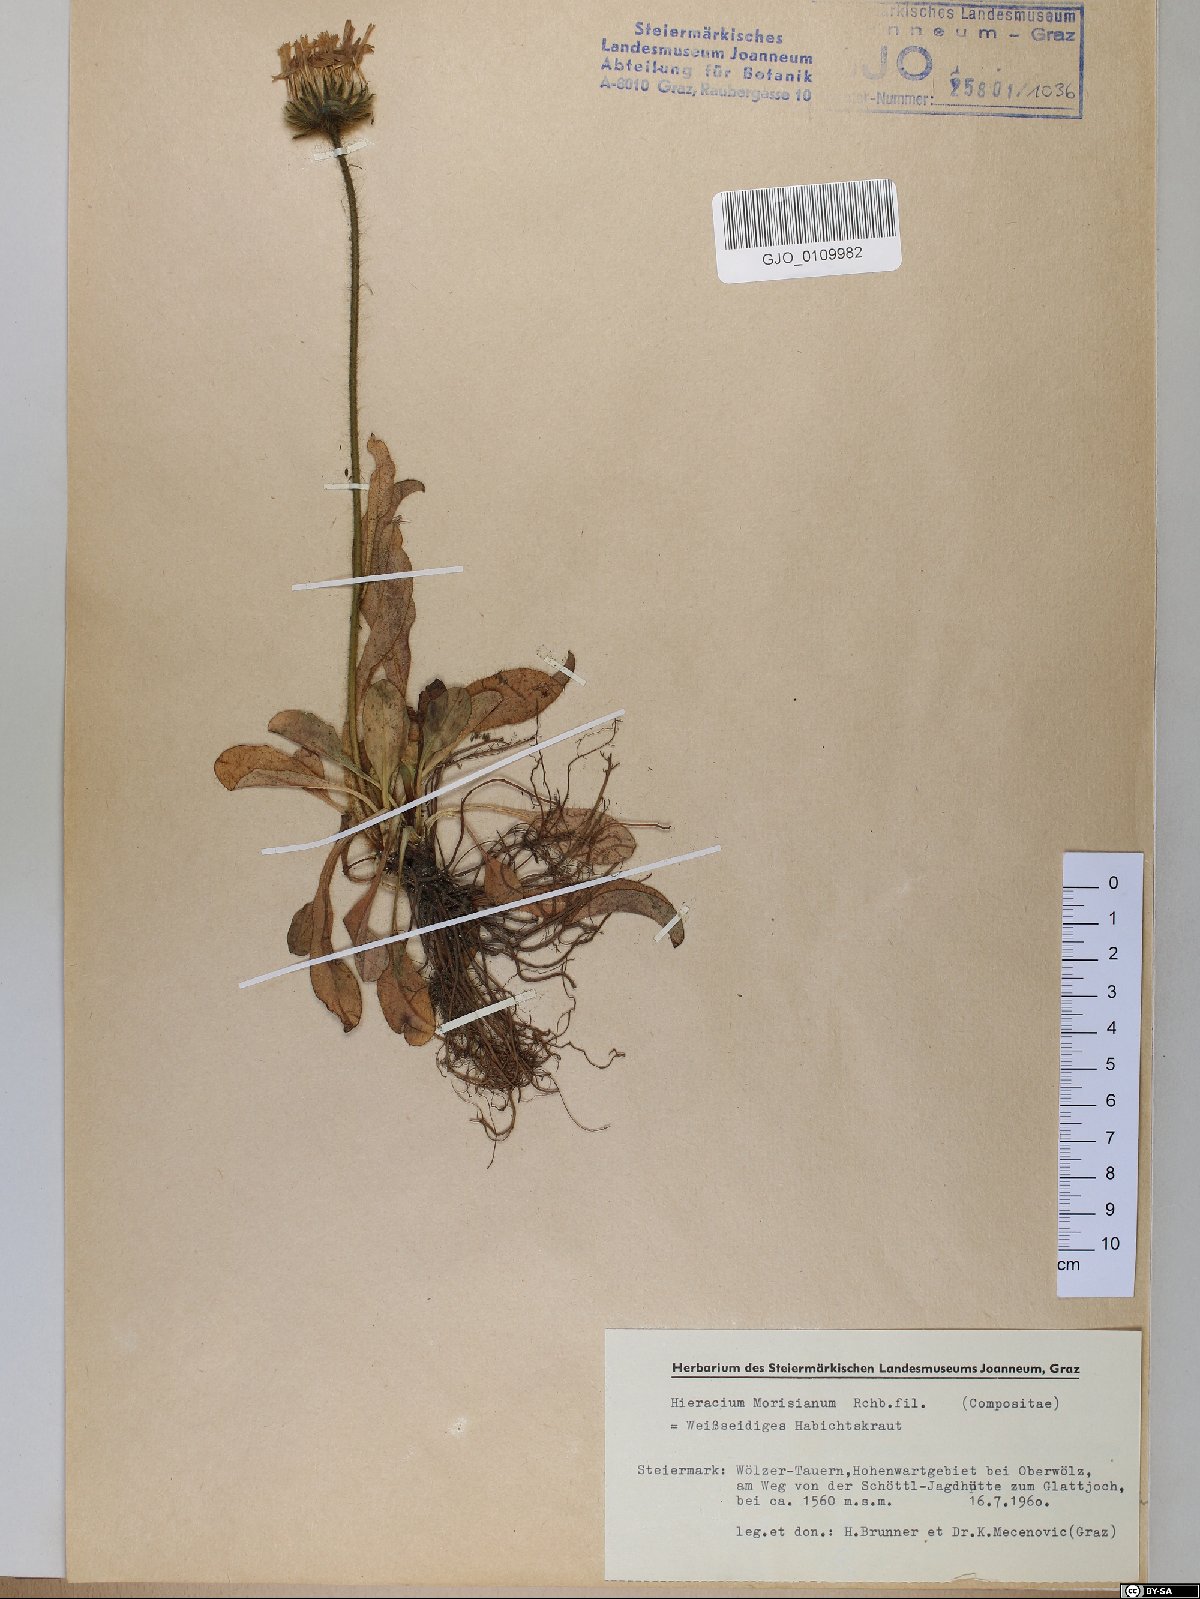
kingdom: Plantae
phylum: Tracheophyta
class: Magnoliopsida
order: Asterales
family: Asteraceae
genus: Hieracium
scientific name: Hieracium pilosum
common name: Fimbriate-pitted hawkweed
